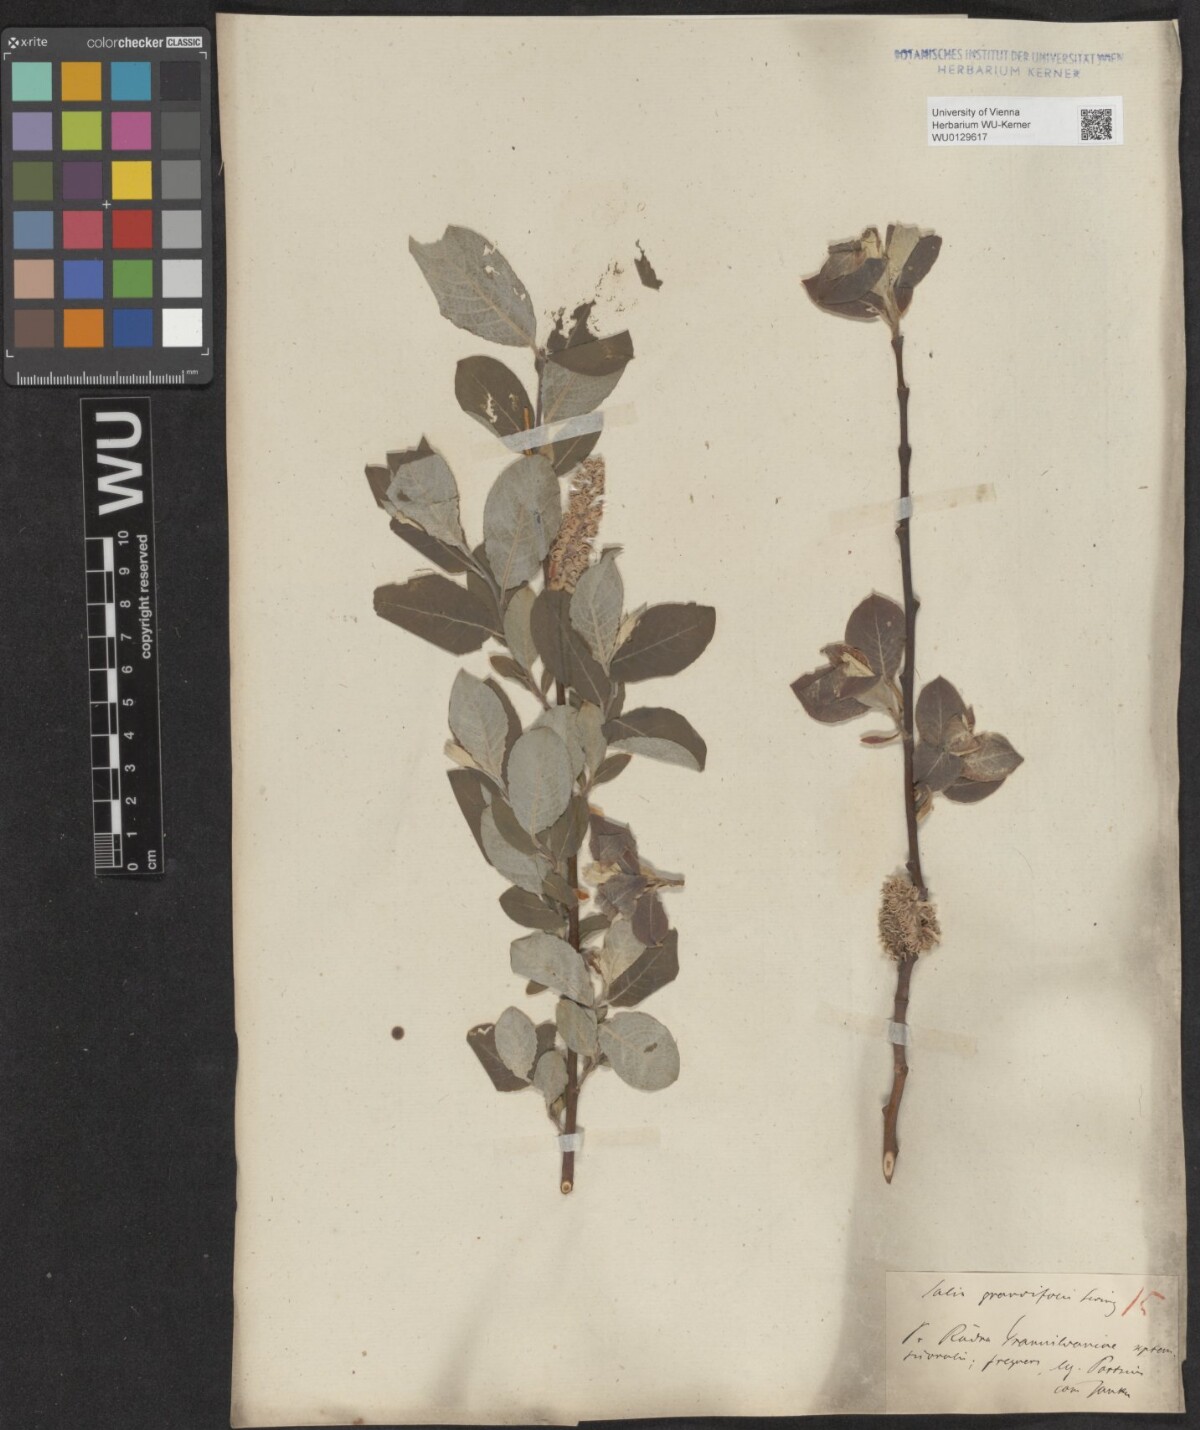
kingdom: Plantae
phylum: Tracheophyta
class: Magnoliopsida
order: Malpighiales
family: Salicaceae
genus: Salix
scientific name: Salix caprea
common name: Goat willow
